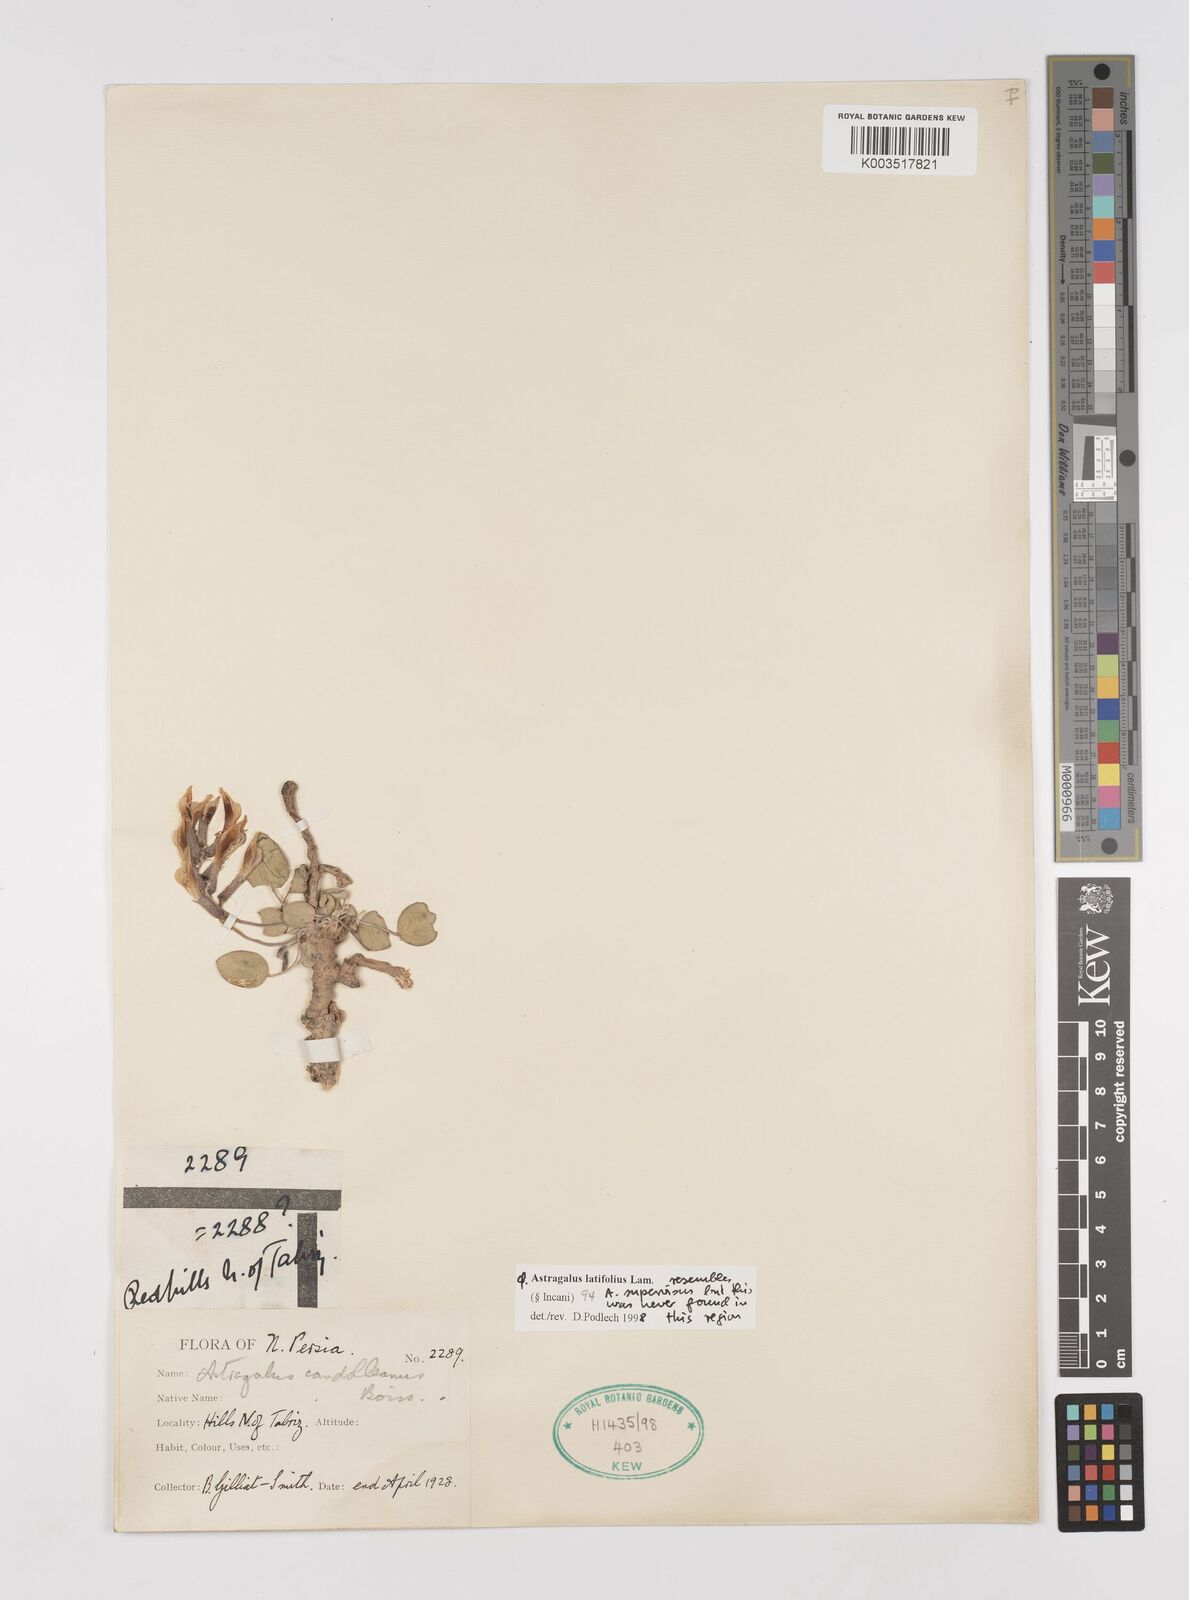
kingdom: Plantae
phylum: Tracheophyta
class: Magnoliopsida
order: Fabales
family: Fabaceae
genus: Astragalus
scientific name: Astragalus latifolius
